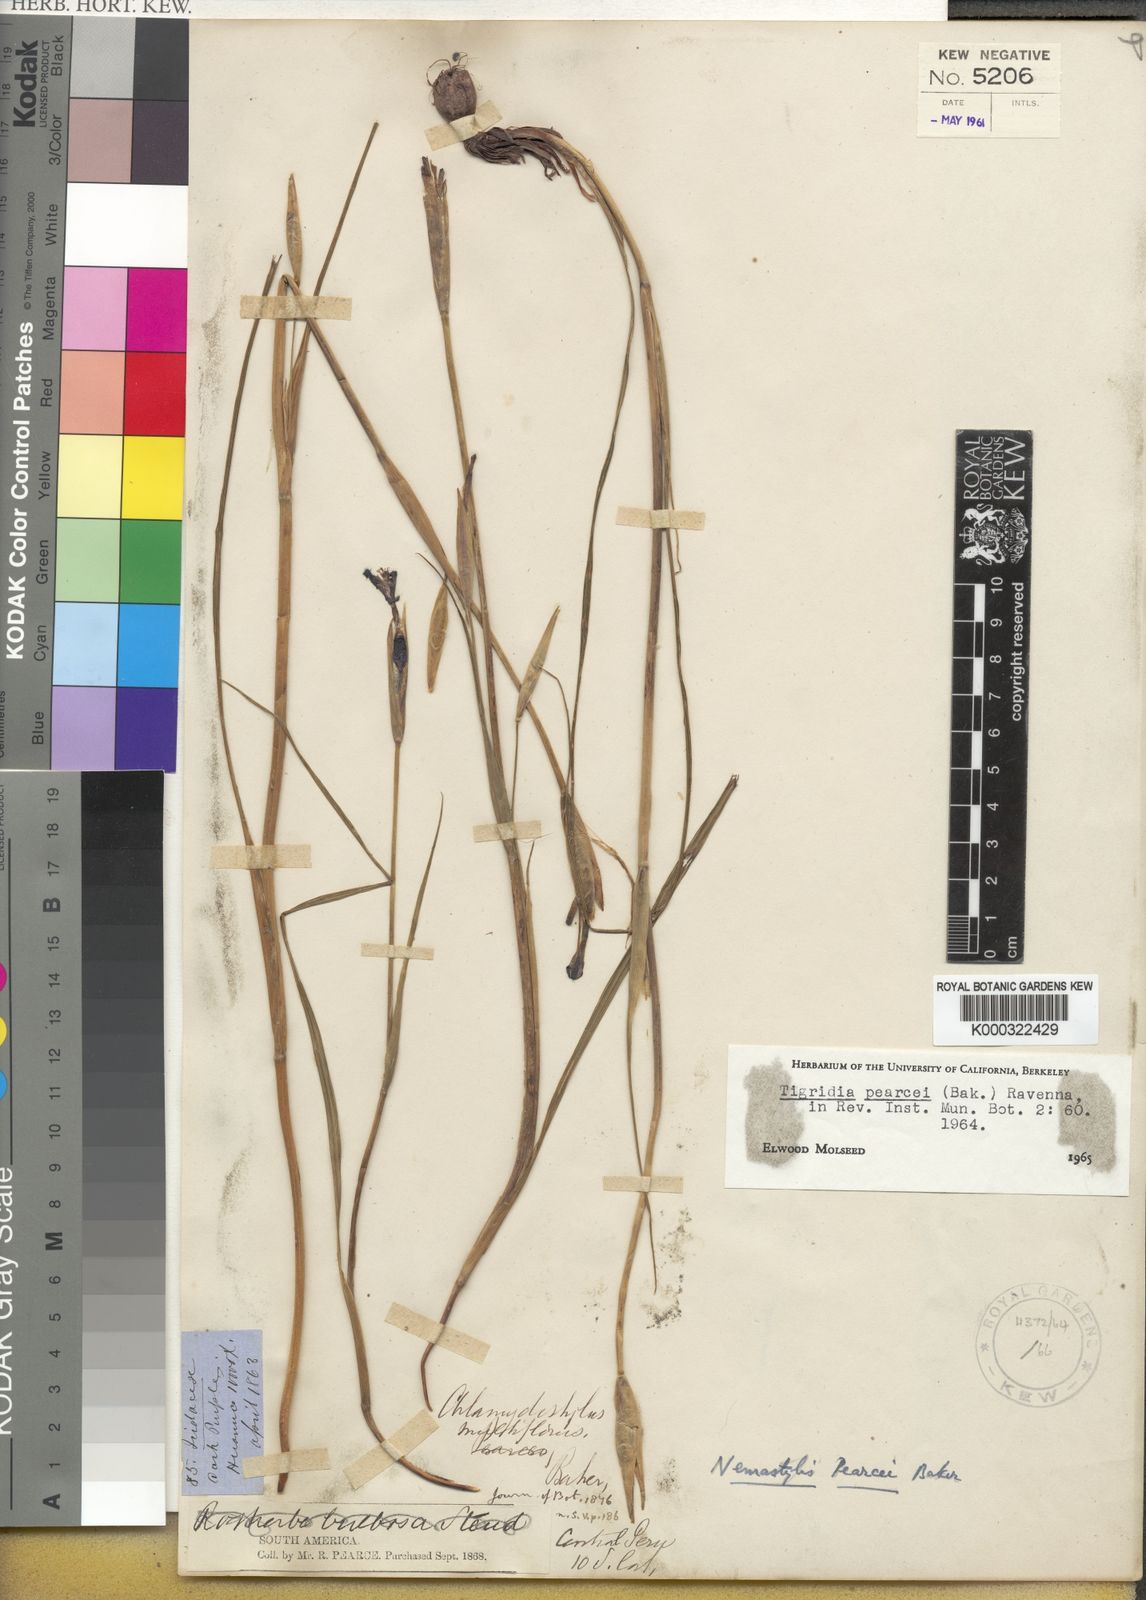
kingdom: Plantae
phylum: Tracheophyta
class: Liliopsida
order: Asparagales
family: Iridaceae
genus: Tigridia
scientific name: Tigridia pearcei
